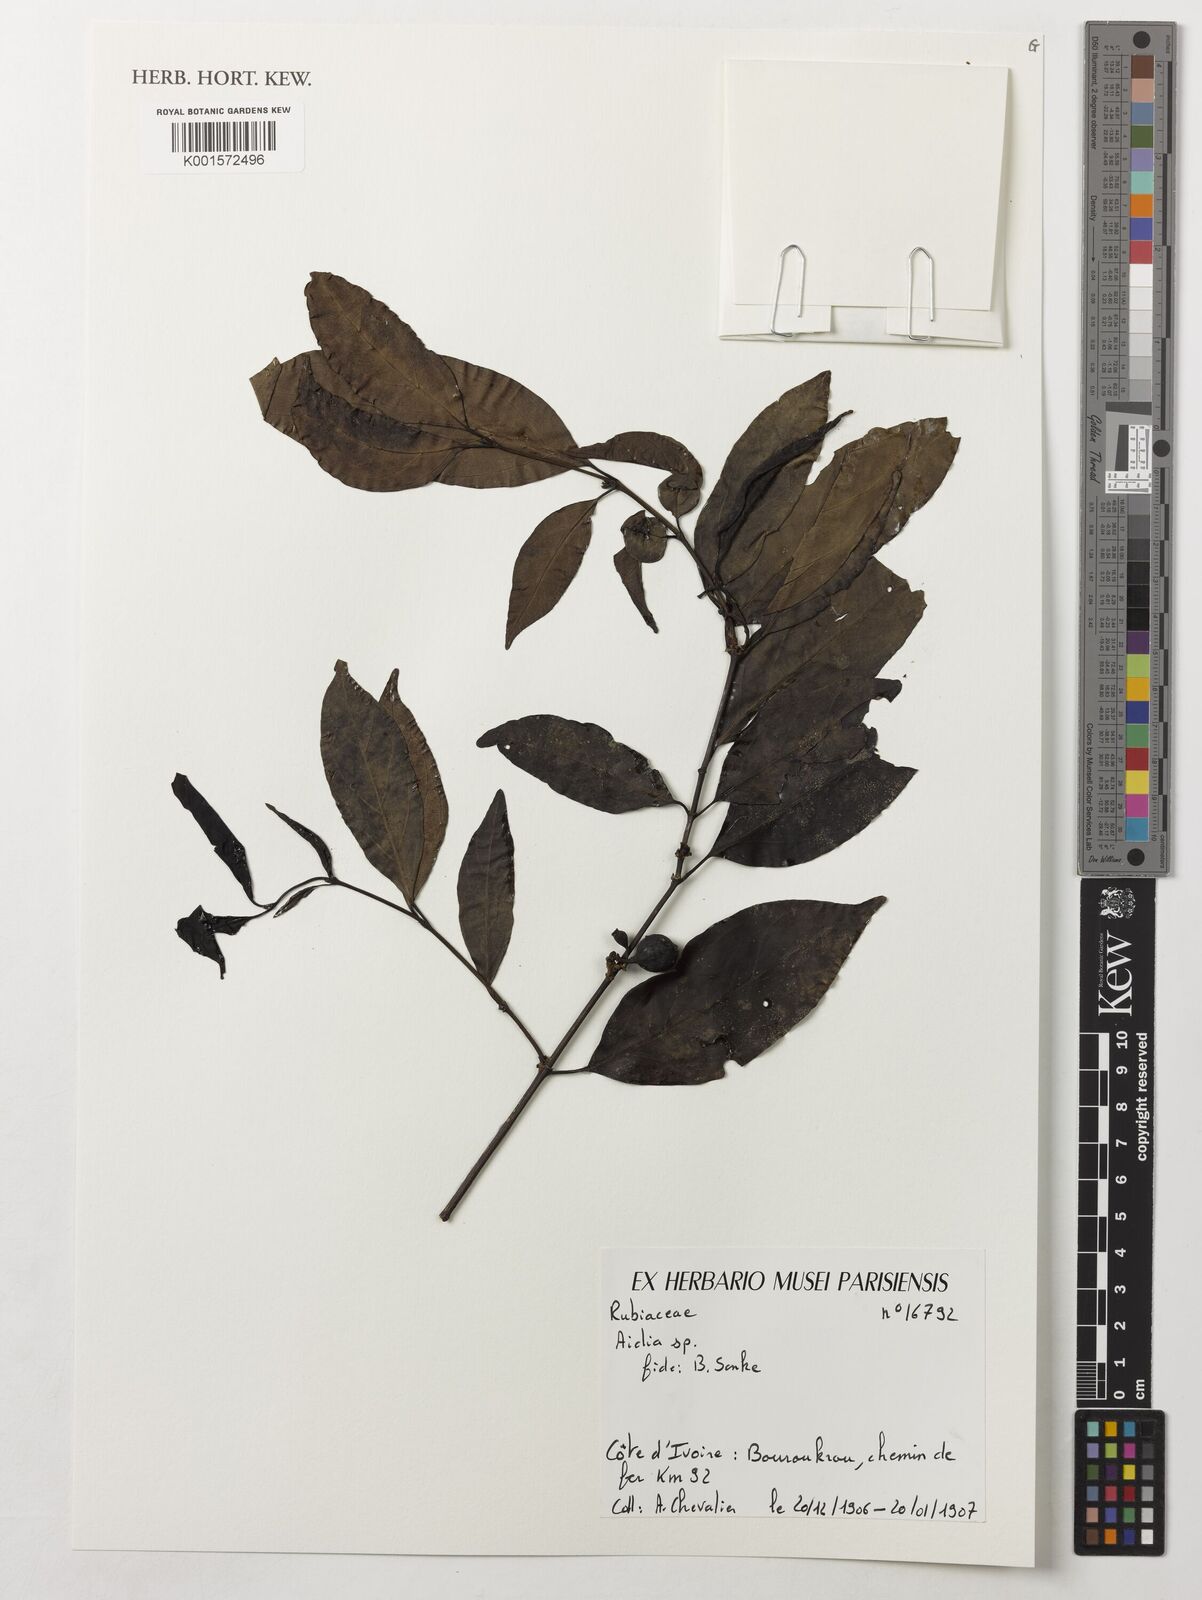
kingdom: Plantae
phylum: Tracheophyta
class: Magnoliopsida
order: Gentianales
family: Rubiaceae
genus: Aidia
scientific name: Aidia
